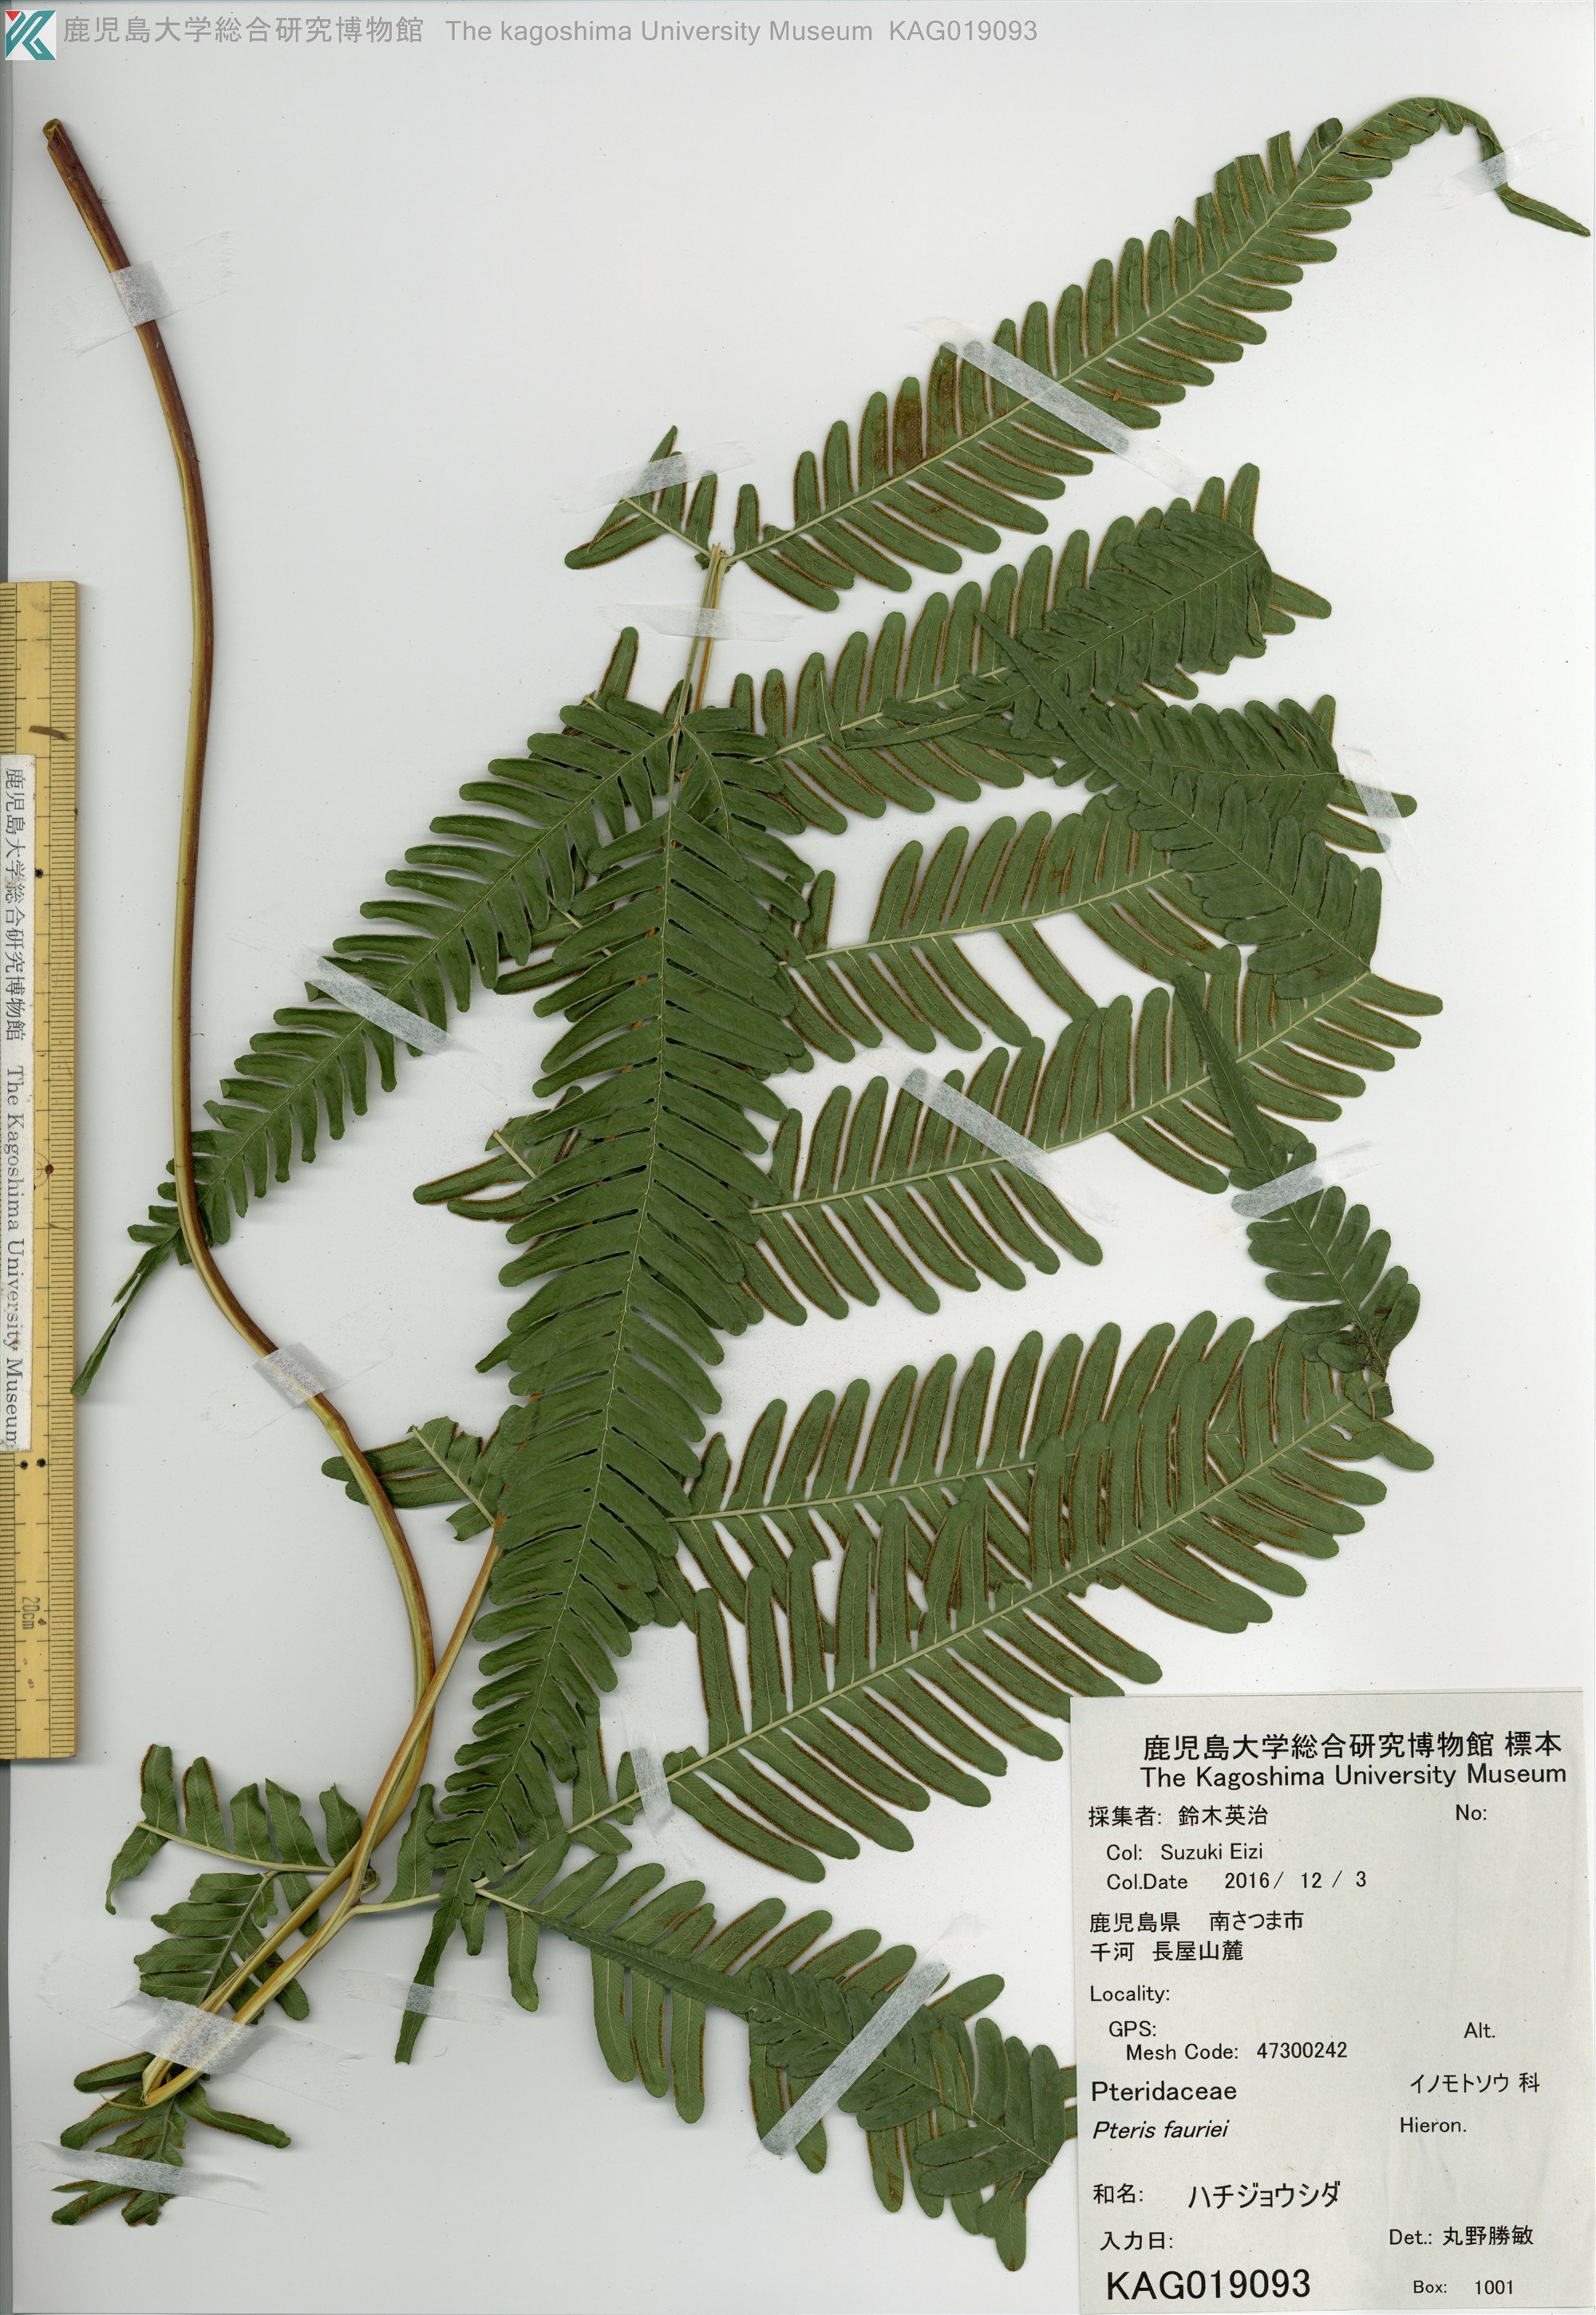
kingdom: Plantae
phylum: Tracheophyta
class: Polypodiopsida
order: Polypodiales
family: Pteridaceae
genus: Pteris
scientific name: Pteris fauriei
